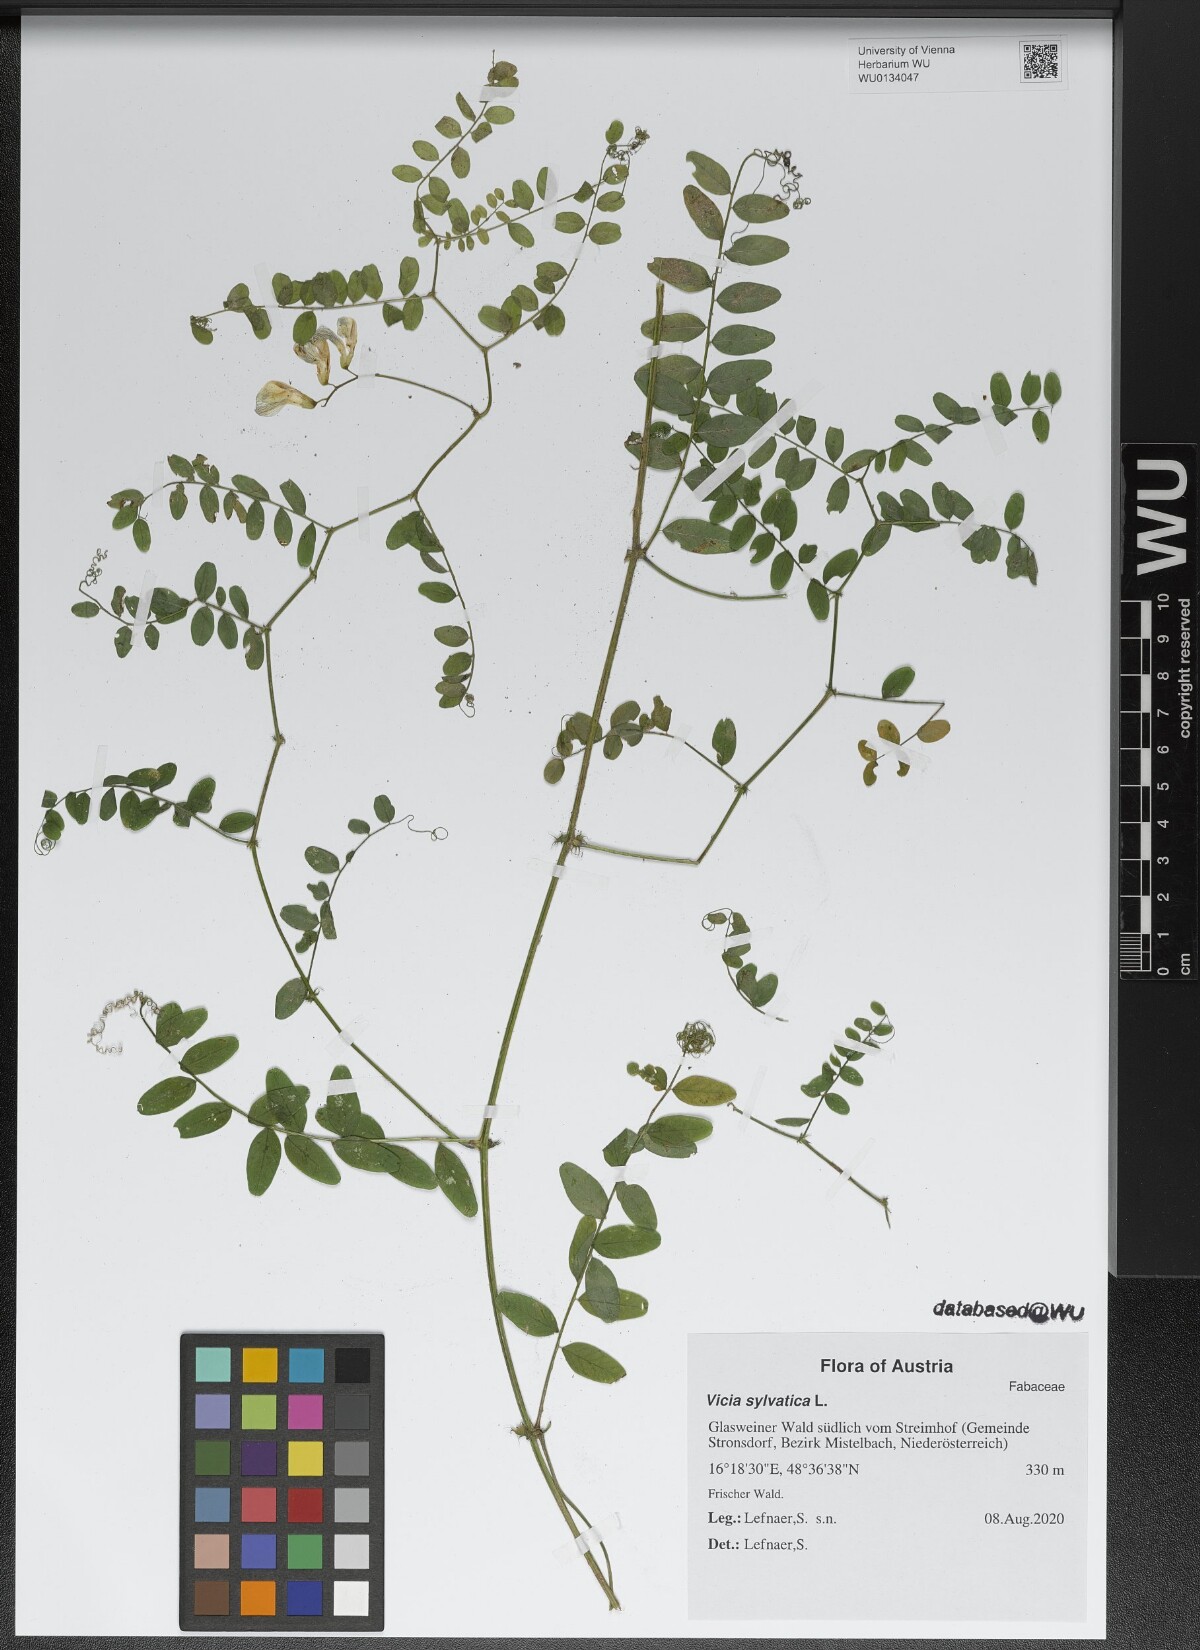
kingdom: Plantae
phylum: Tracheophyta
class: Magnoliopsida
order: Fabales
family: Fabaceae
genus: Vicia
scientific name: Vicia sylvatica
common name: Wood vetch
